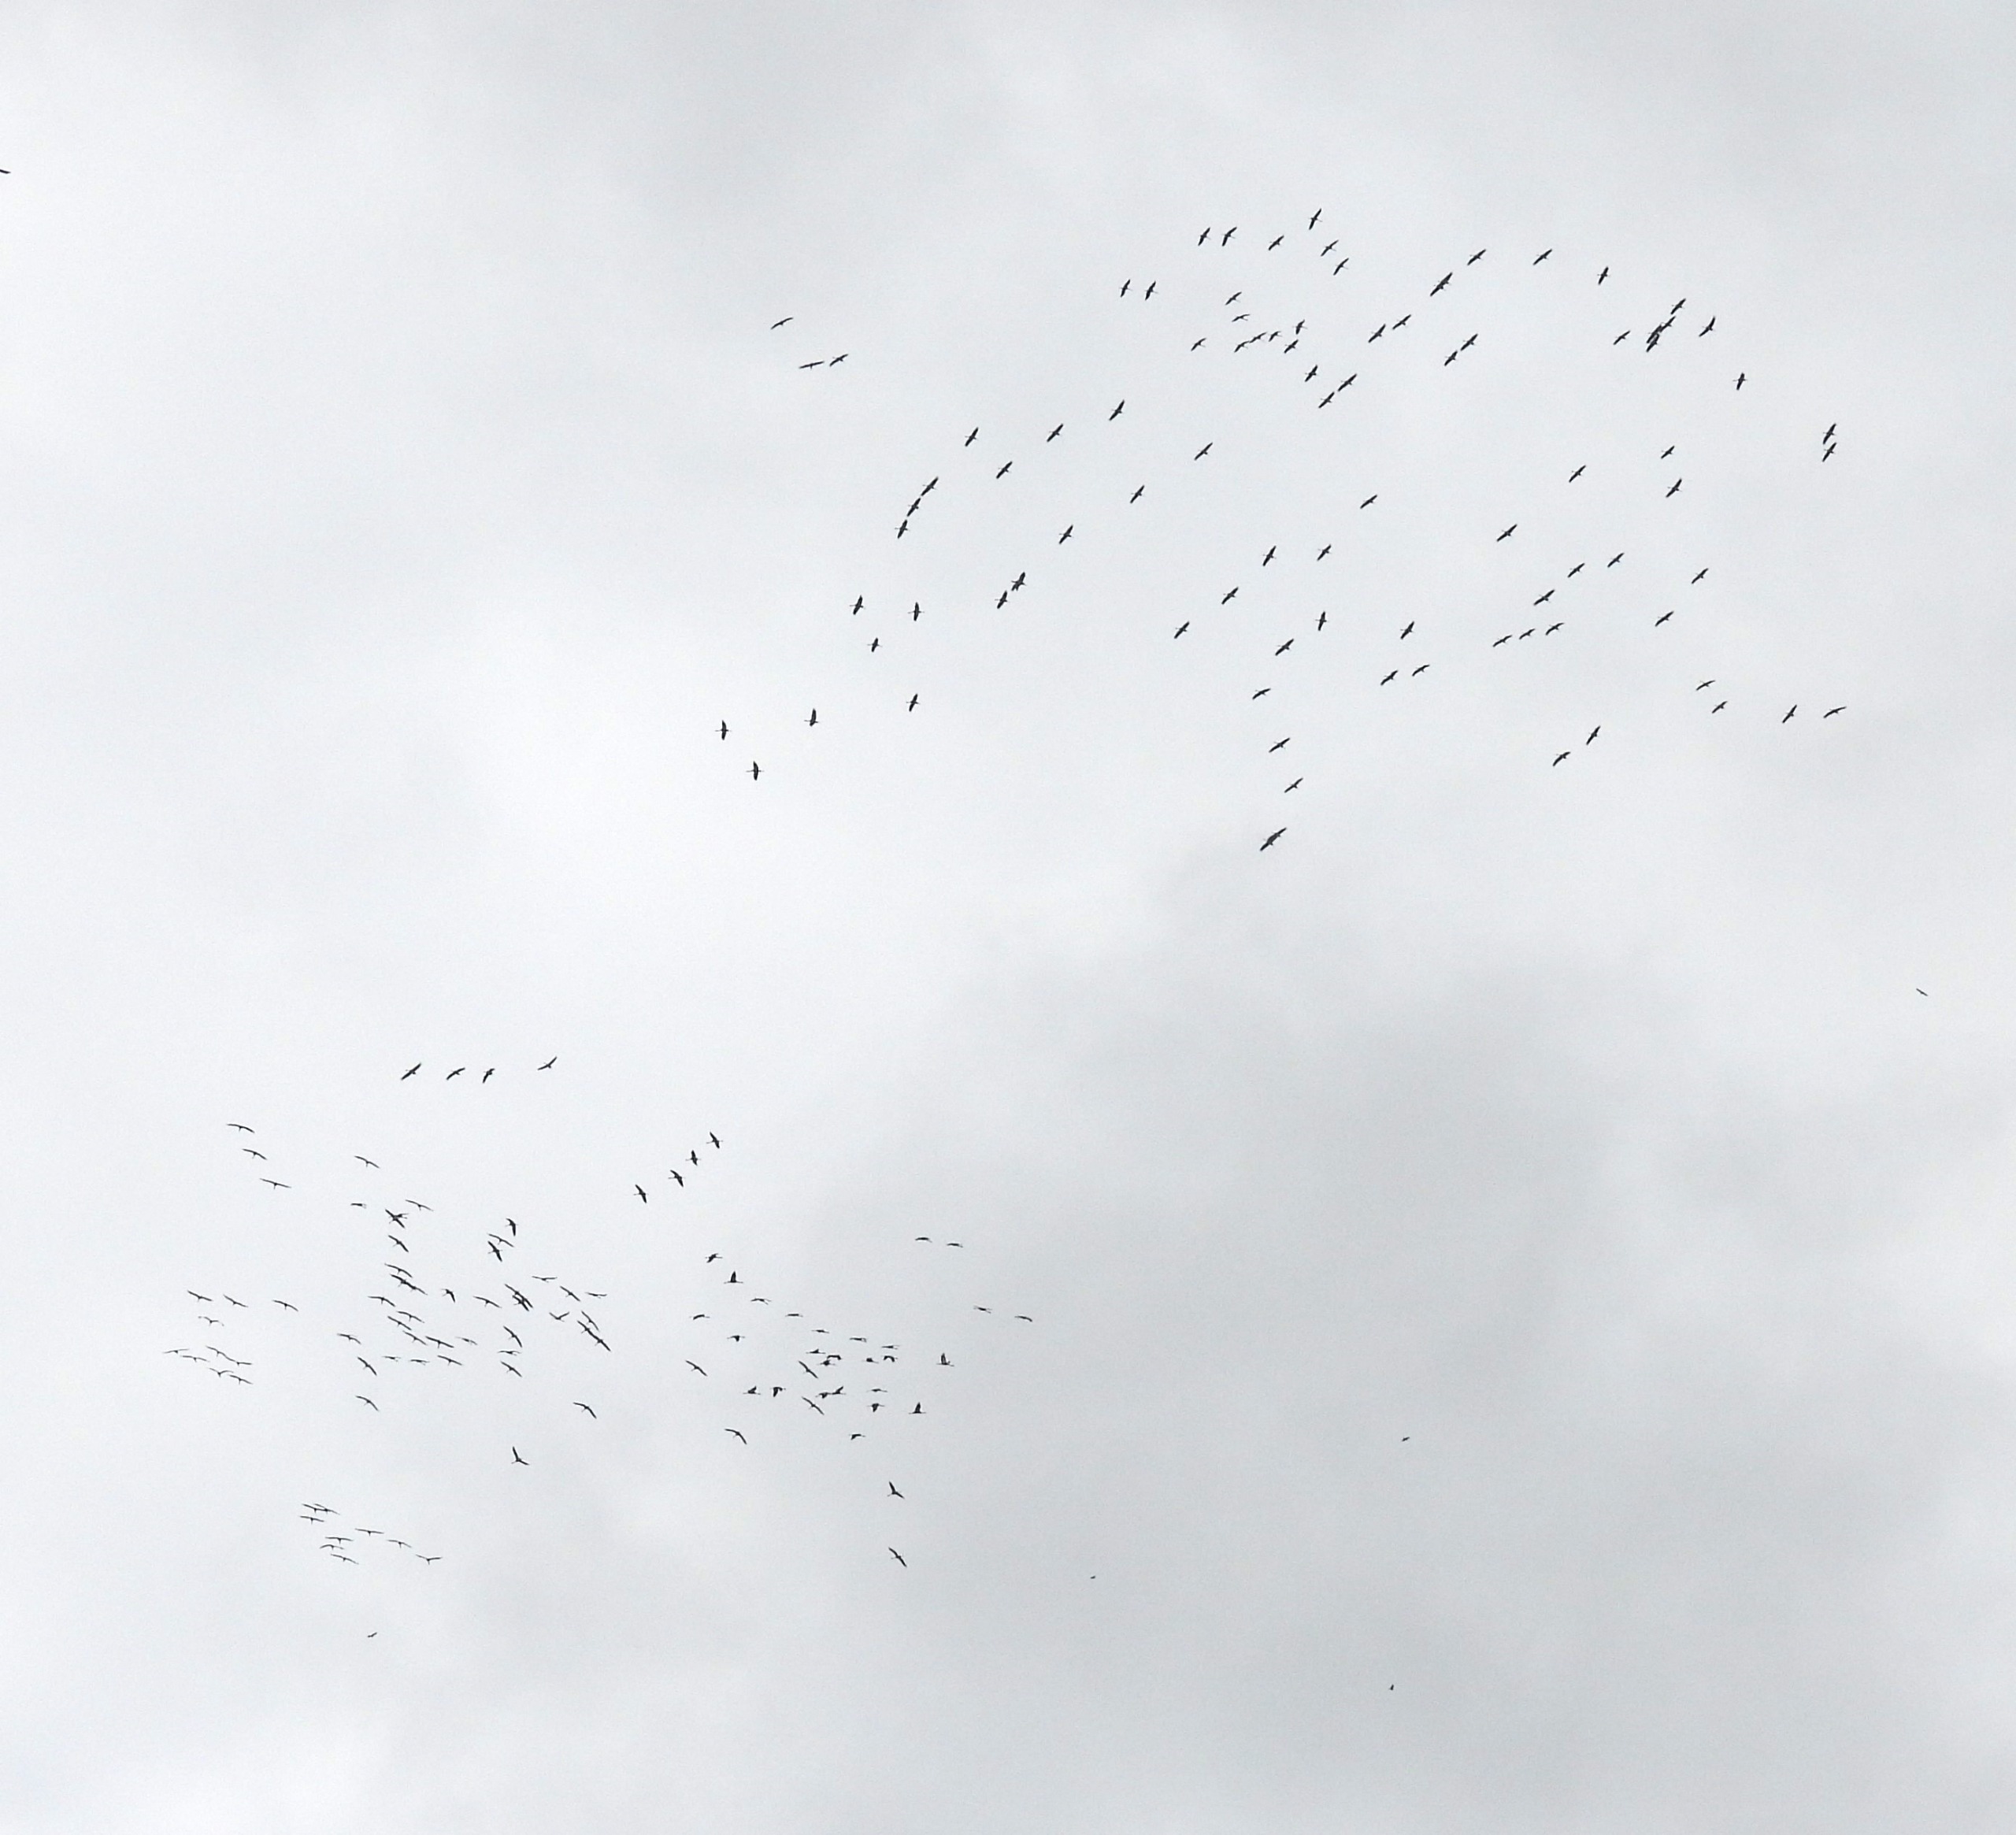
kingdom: Animalia
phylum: Chordata
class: Aves
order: Gruiformes
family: Gruidae
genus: Grus
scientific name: Grus grus
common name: Trane
